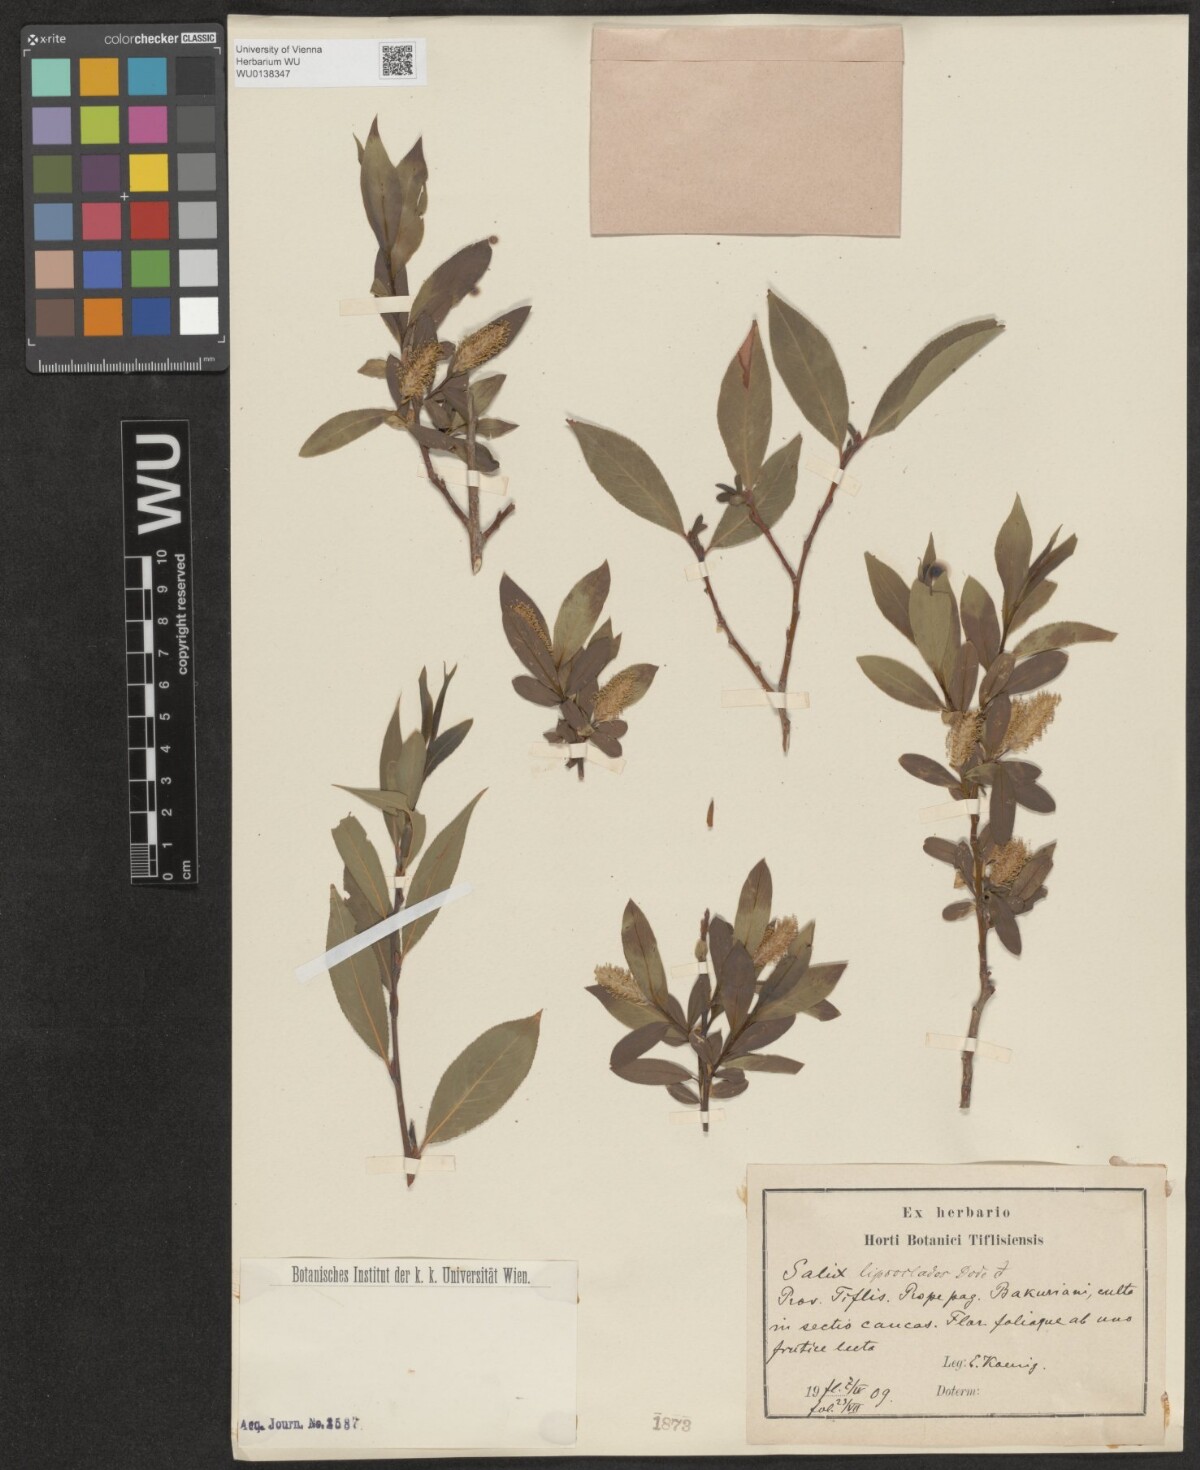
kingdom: Plantae
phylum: Tracheophyta
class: Magnoliopsida
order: Malpighiales
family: Salicaceae
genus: Salix
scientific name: Salix excelsa
